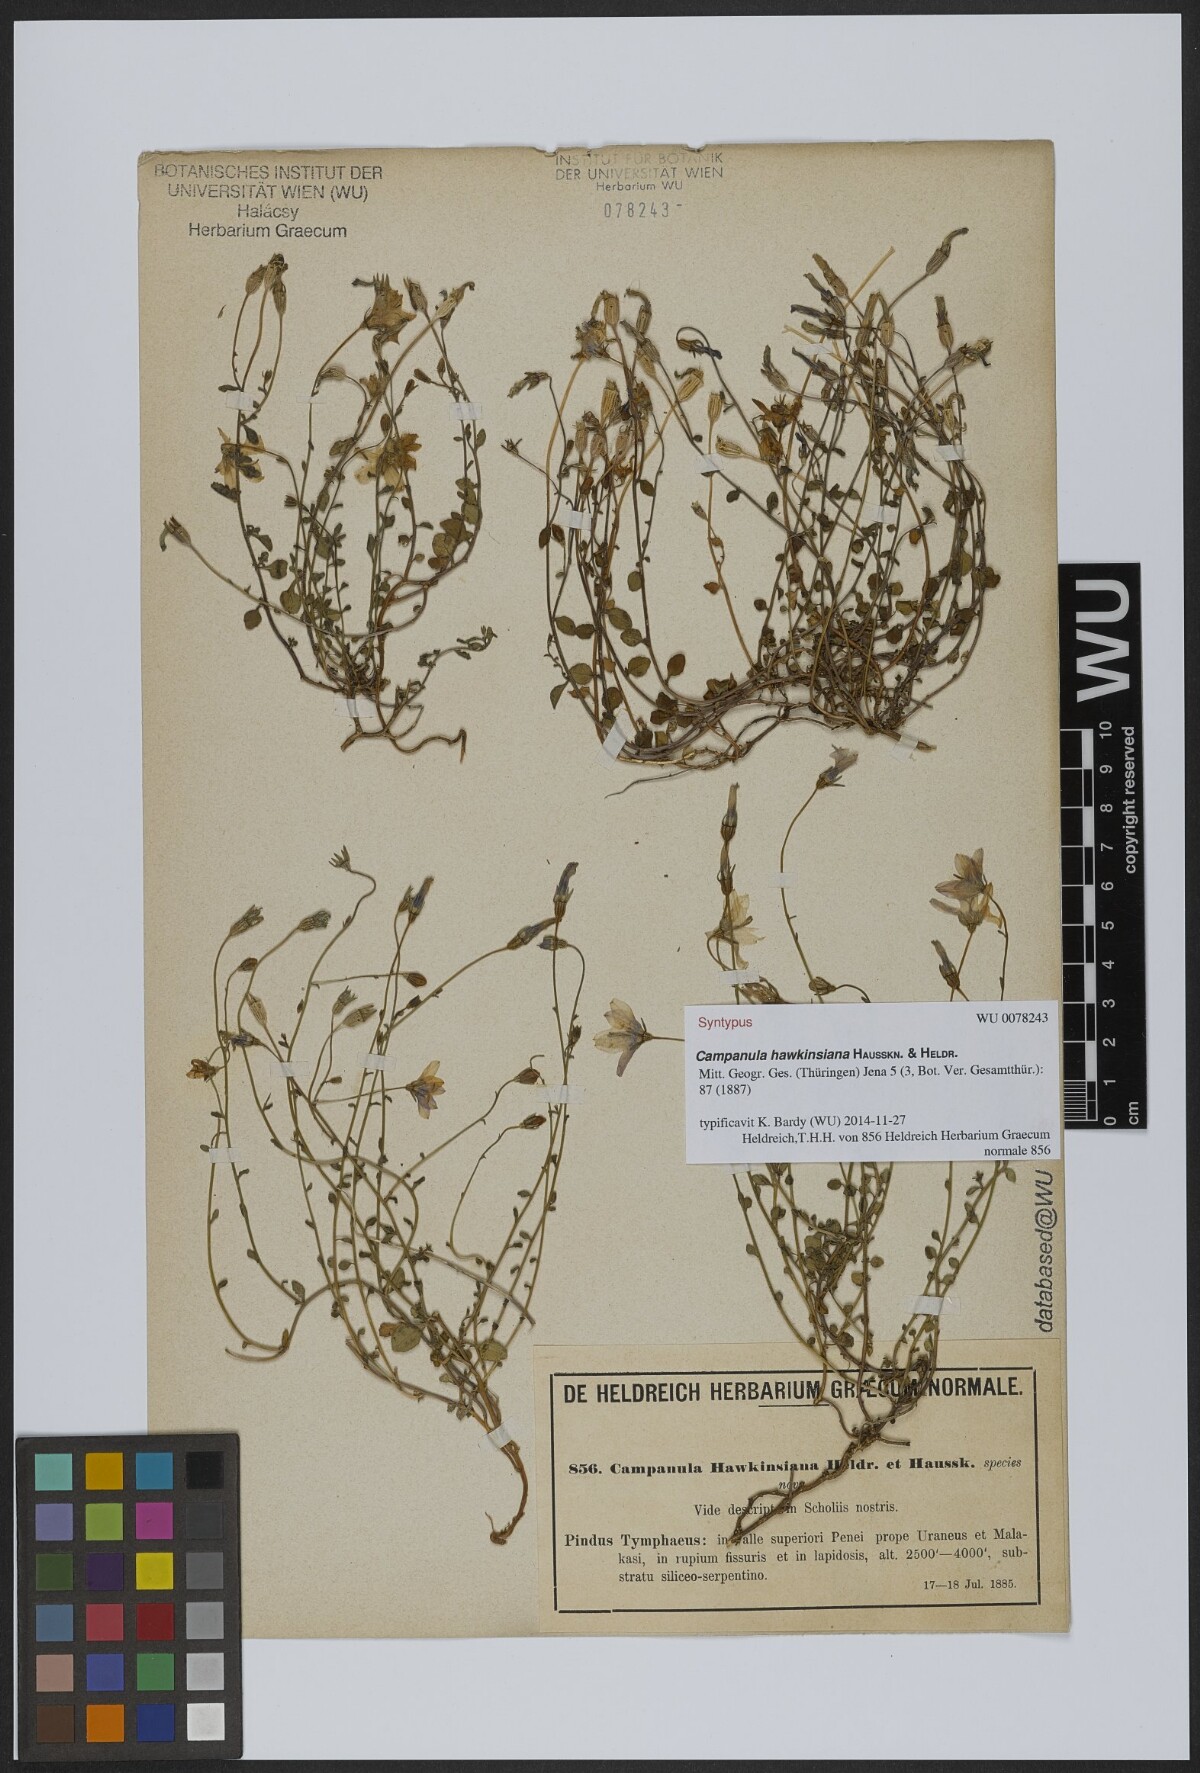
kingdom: Plantae
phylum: Tracheophyta
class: Magnoliopsida
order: Asterales
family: Campanulaceae
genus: Campanula
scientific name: Campanula hawkinsiana
